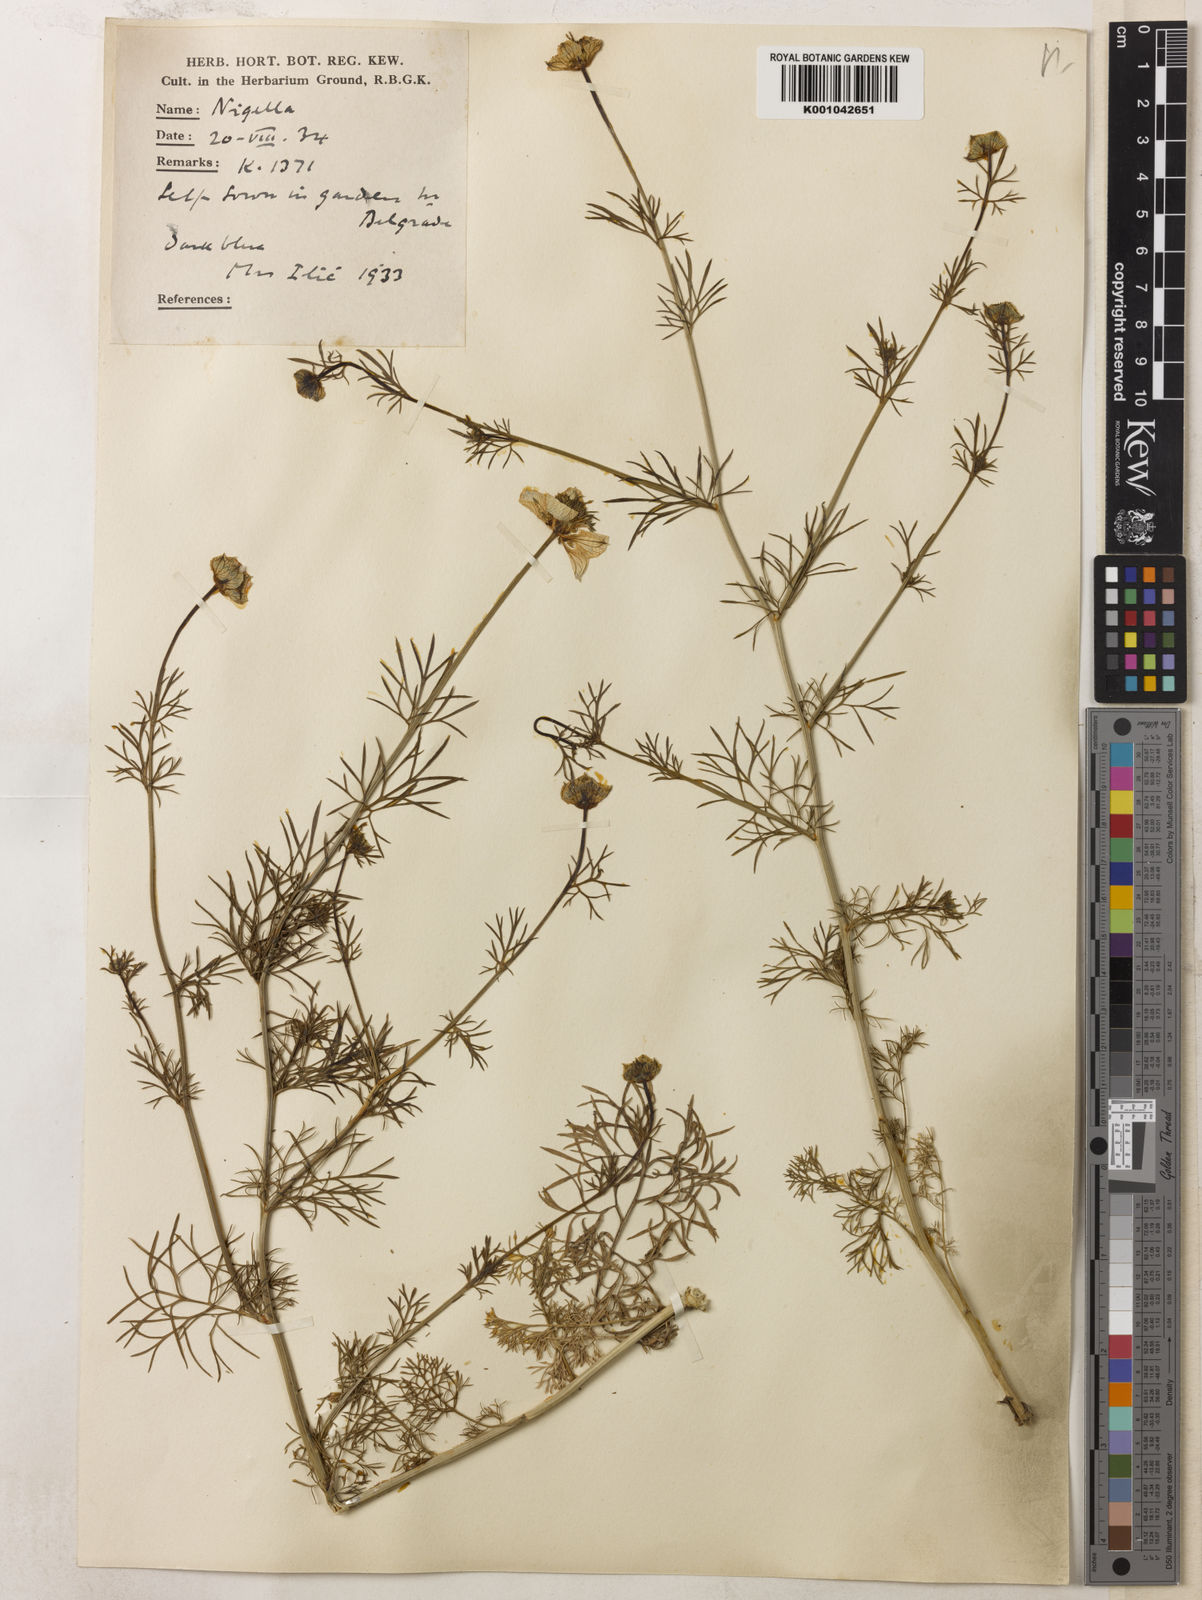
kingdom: Plantae
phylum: Tracheophyta
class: Magnoliopsida
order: Ranunculales
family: Ranunculaceae
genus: Nigella
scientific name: Nigella arvensis
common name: Wild fennel-flower
